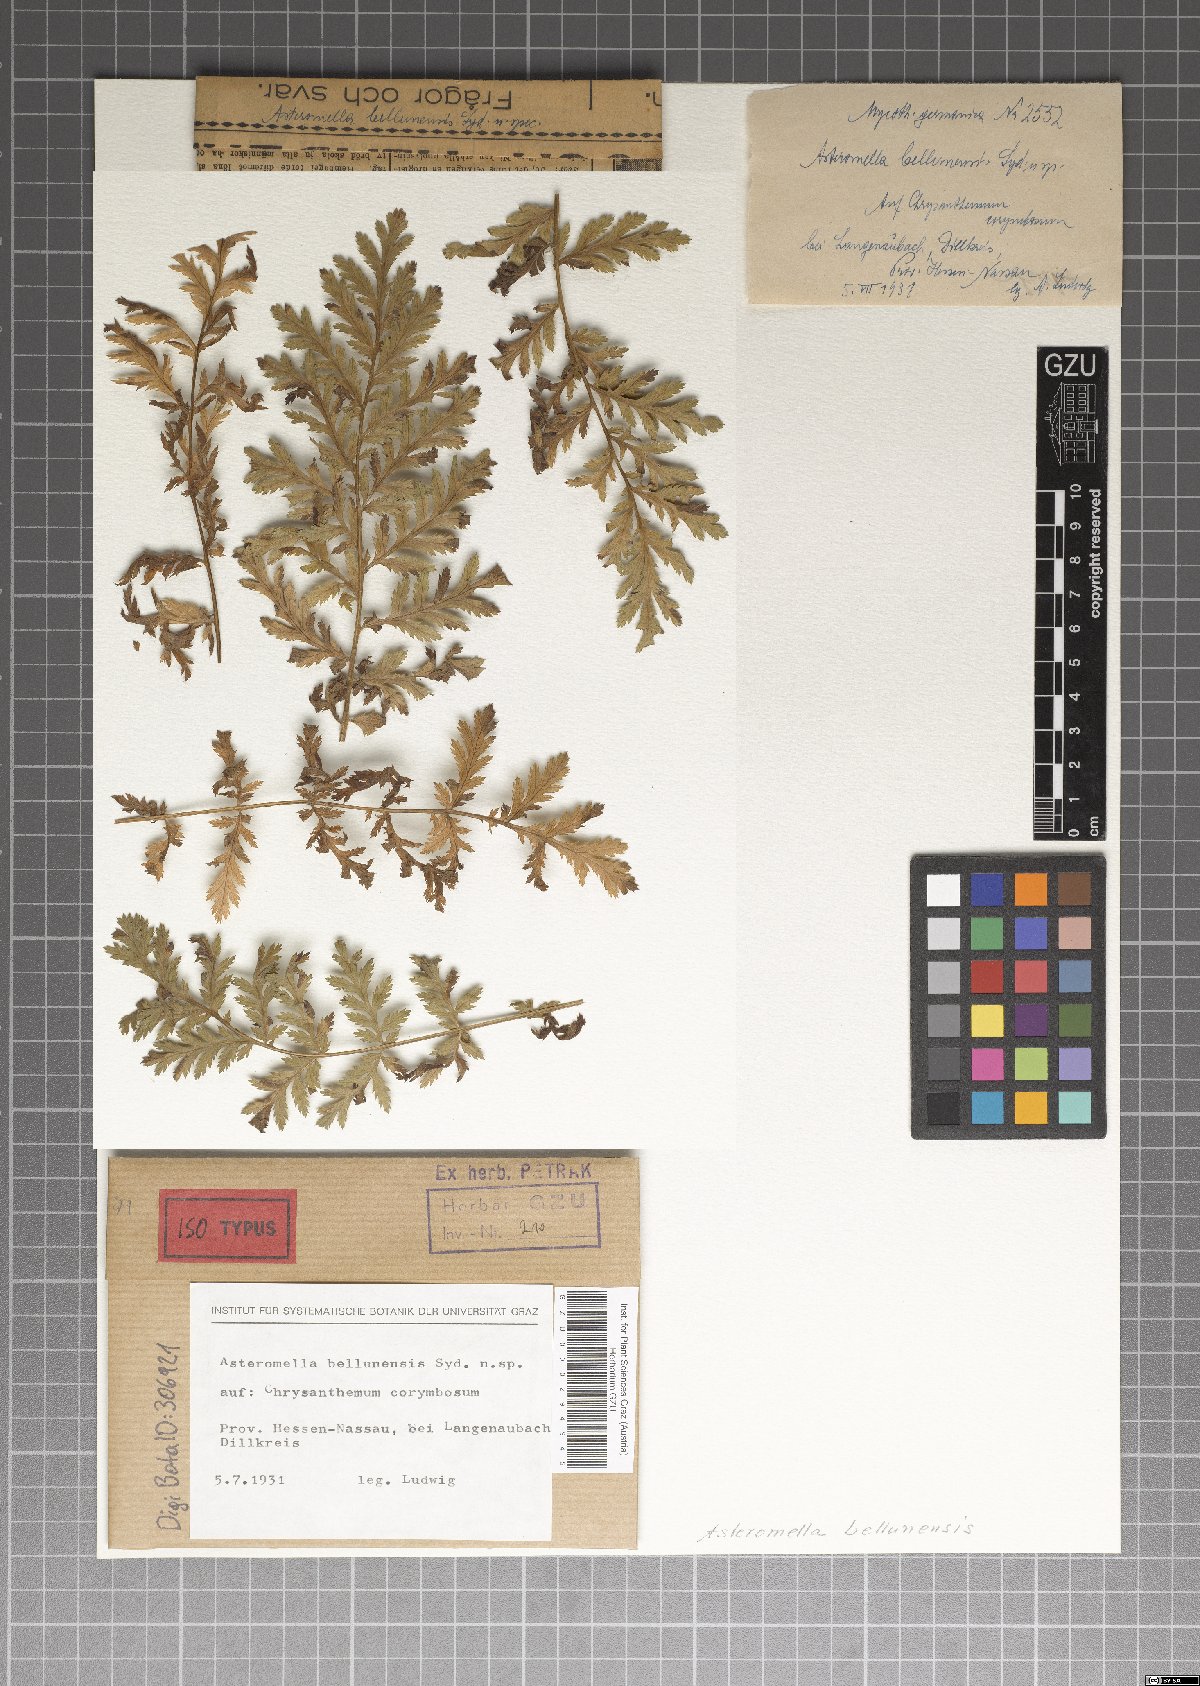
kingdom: Fungi
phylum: Ascomycota
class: Dothideomycetes
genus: Asteromella
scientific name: Asteromella bellunensis
